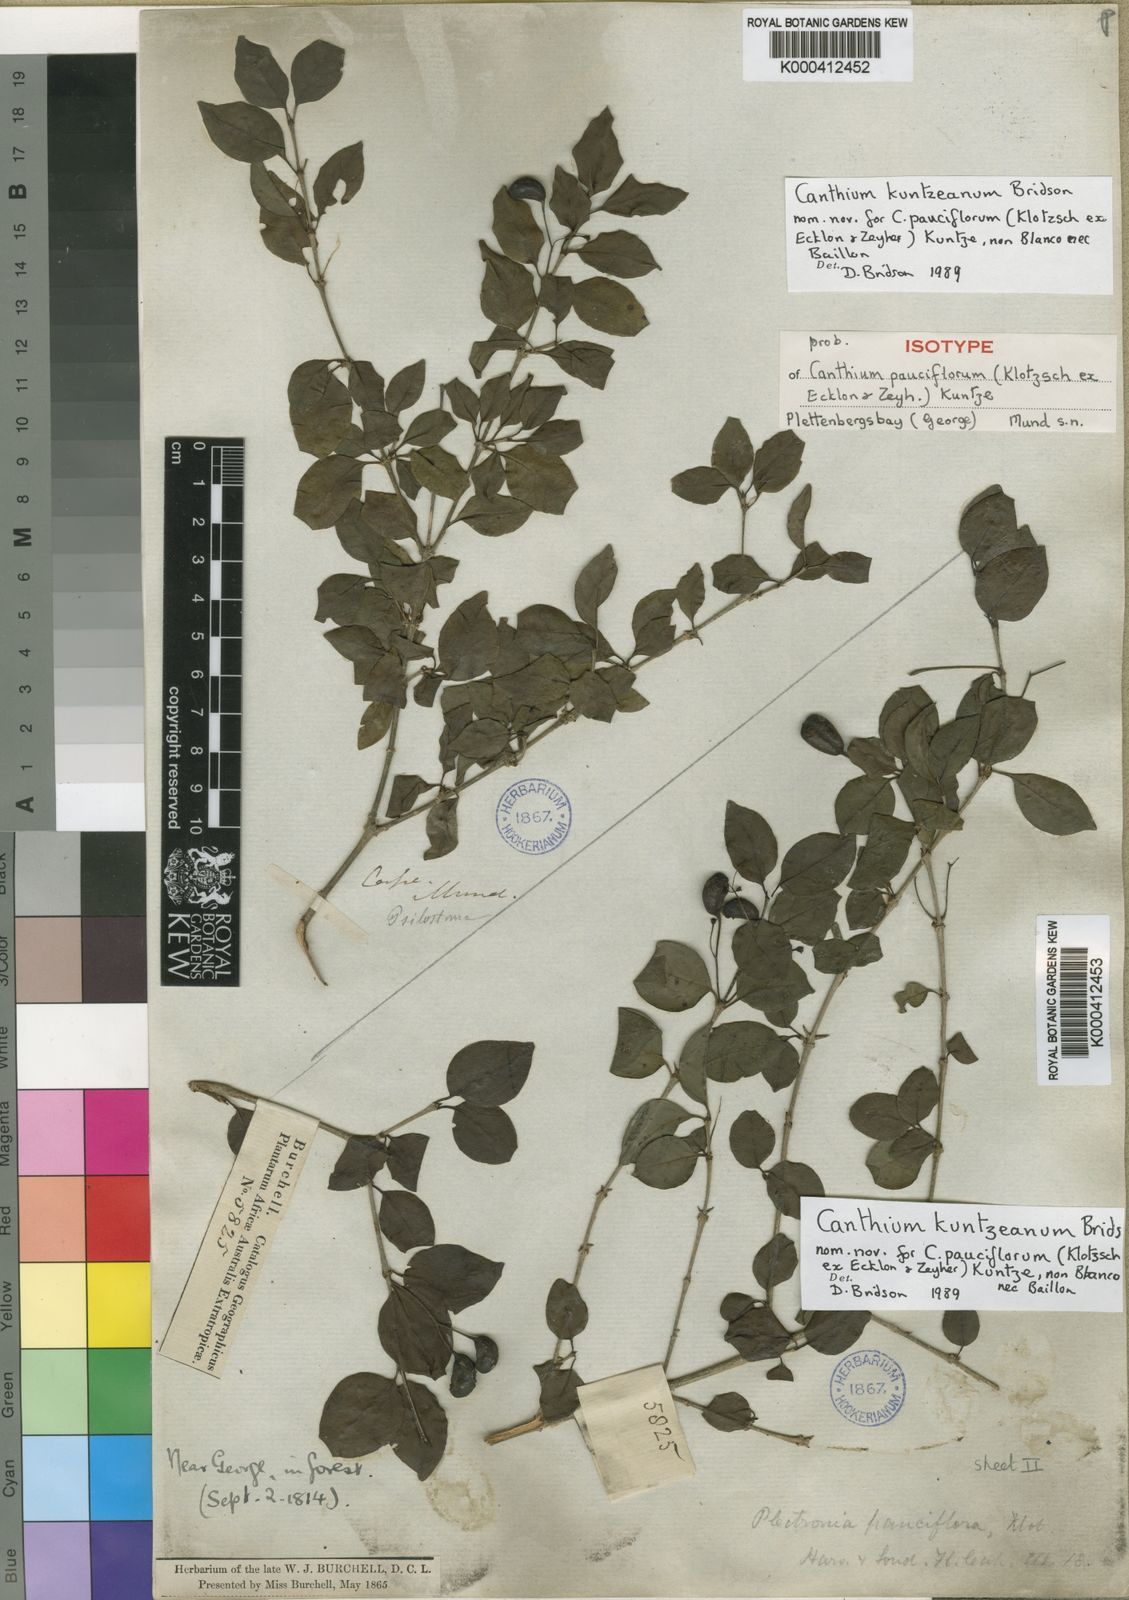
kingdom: Plantae
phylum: Tracheophyta
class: Magnoliopsida
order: Gentianales
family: Rubiaceae
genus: Canthium
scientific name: Canthium kuntzeanum
